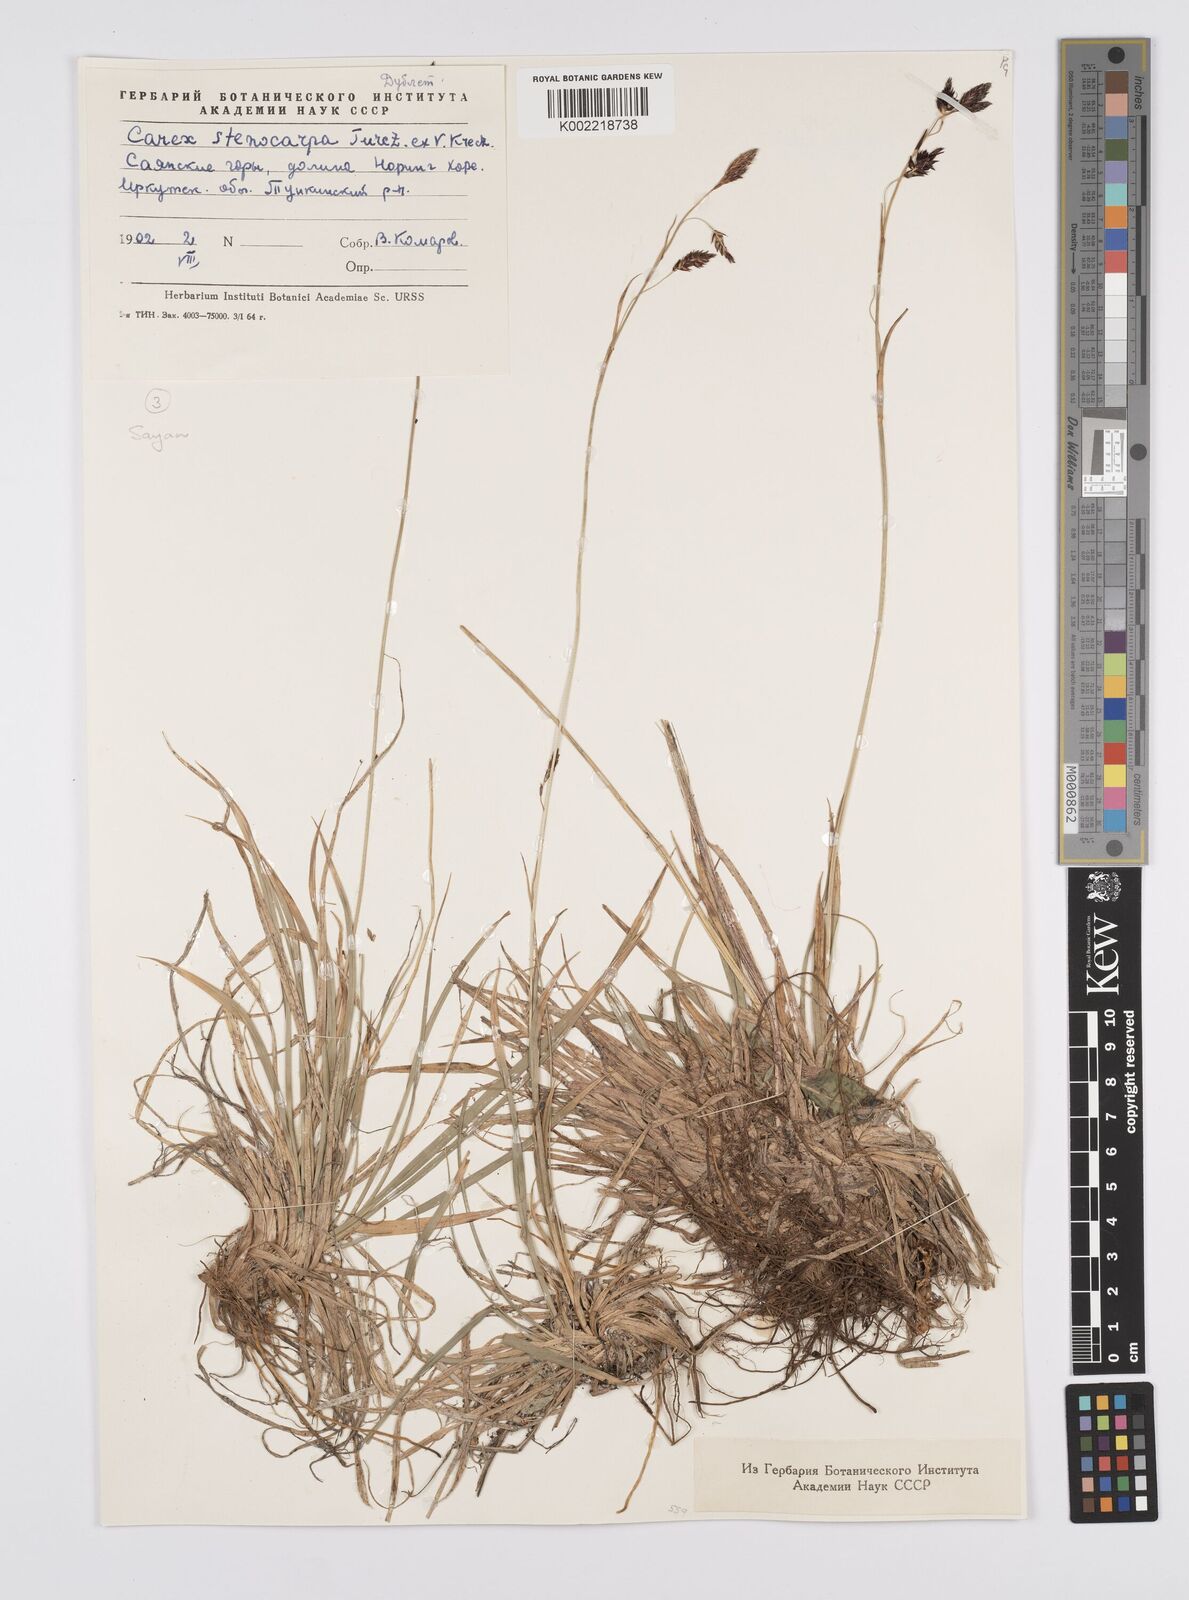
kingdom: Plantae
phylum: Tracheophyta
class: Liliopsida
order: Poales
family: Cyperaceae
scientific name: Cyperaceae
